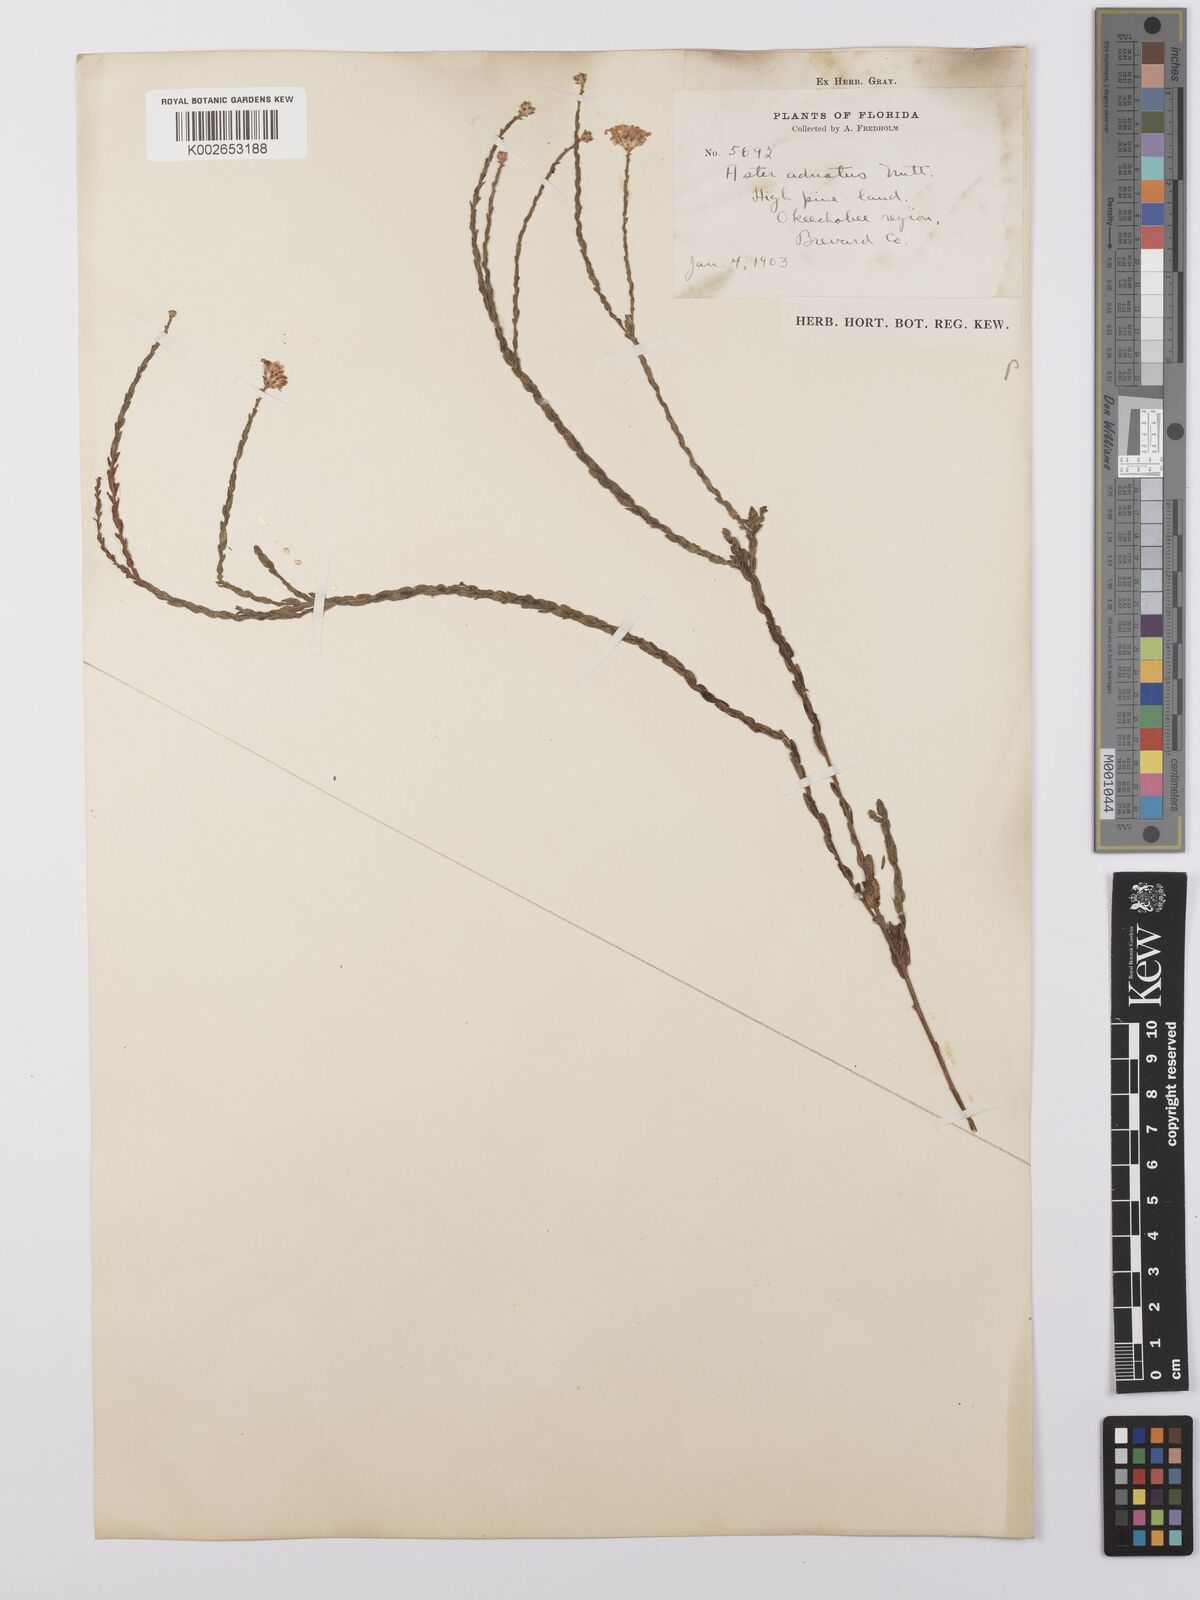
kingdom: Plantae
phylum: Tracheophyta
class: Magnoliopsida
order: Asterales
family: Asteraceae
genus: Symphyotrichum
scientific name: Symphyotrichum adnatum
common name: Scale-leaf aster
